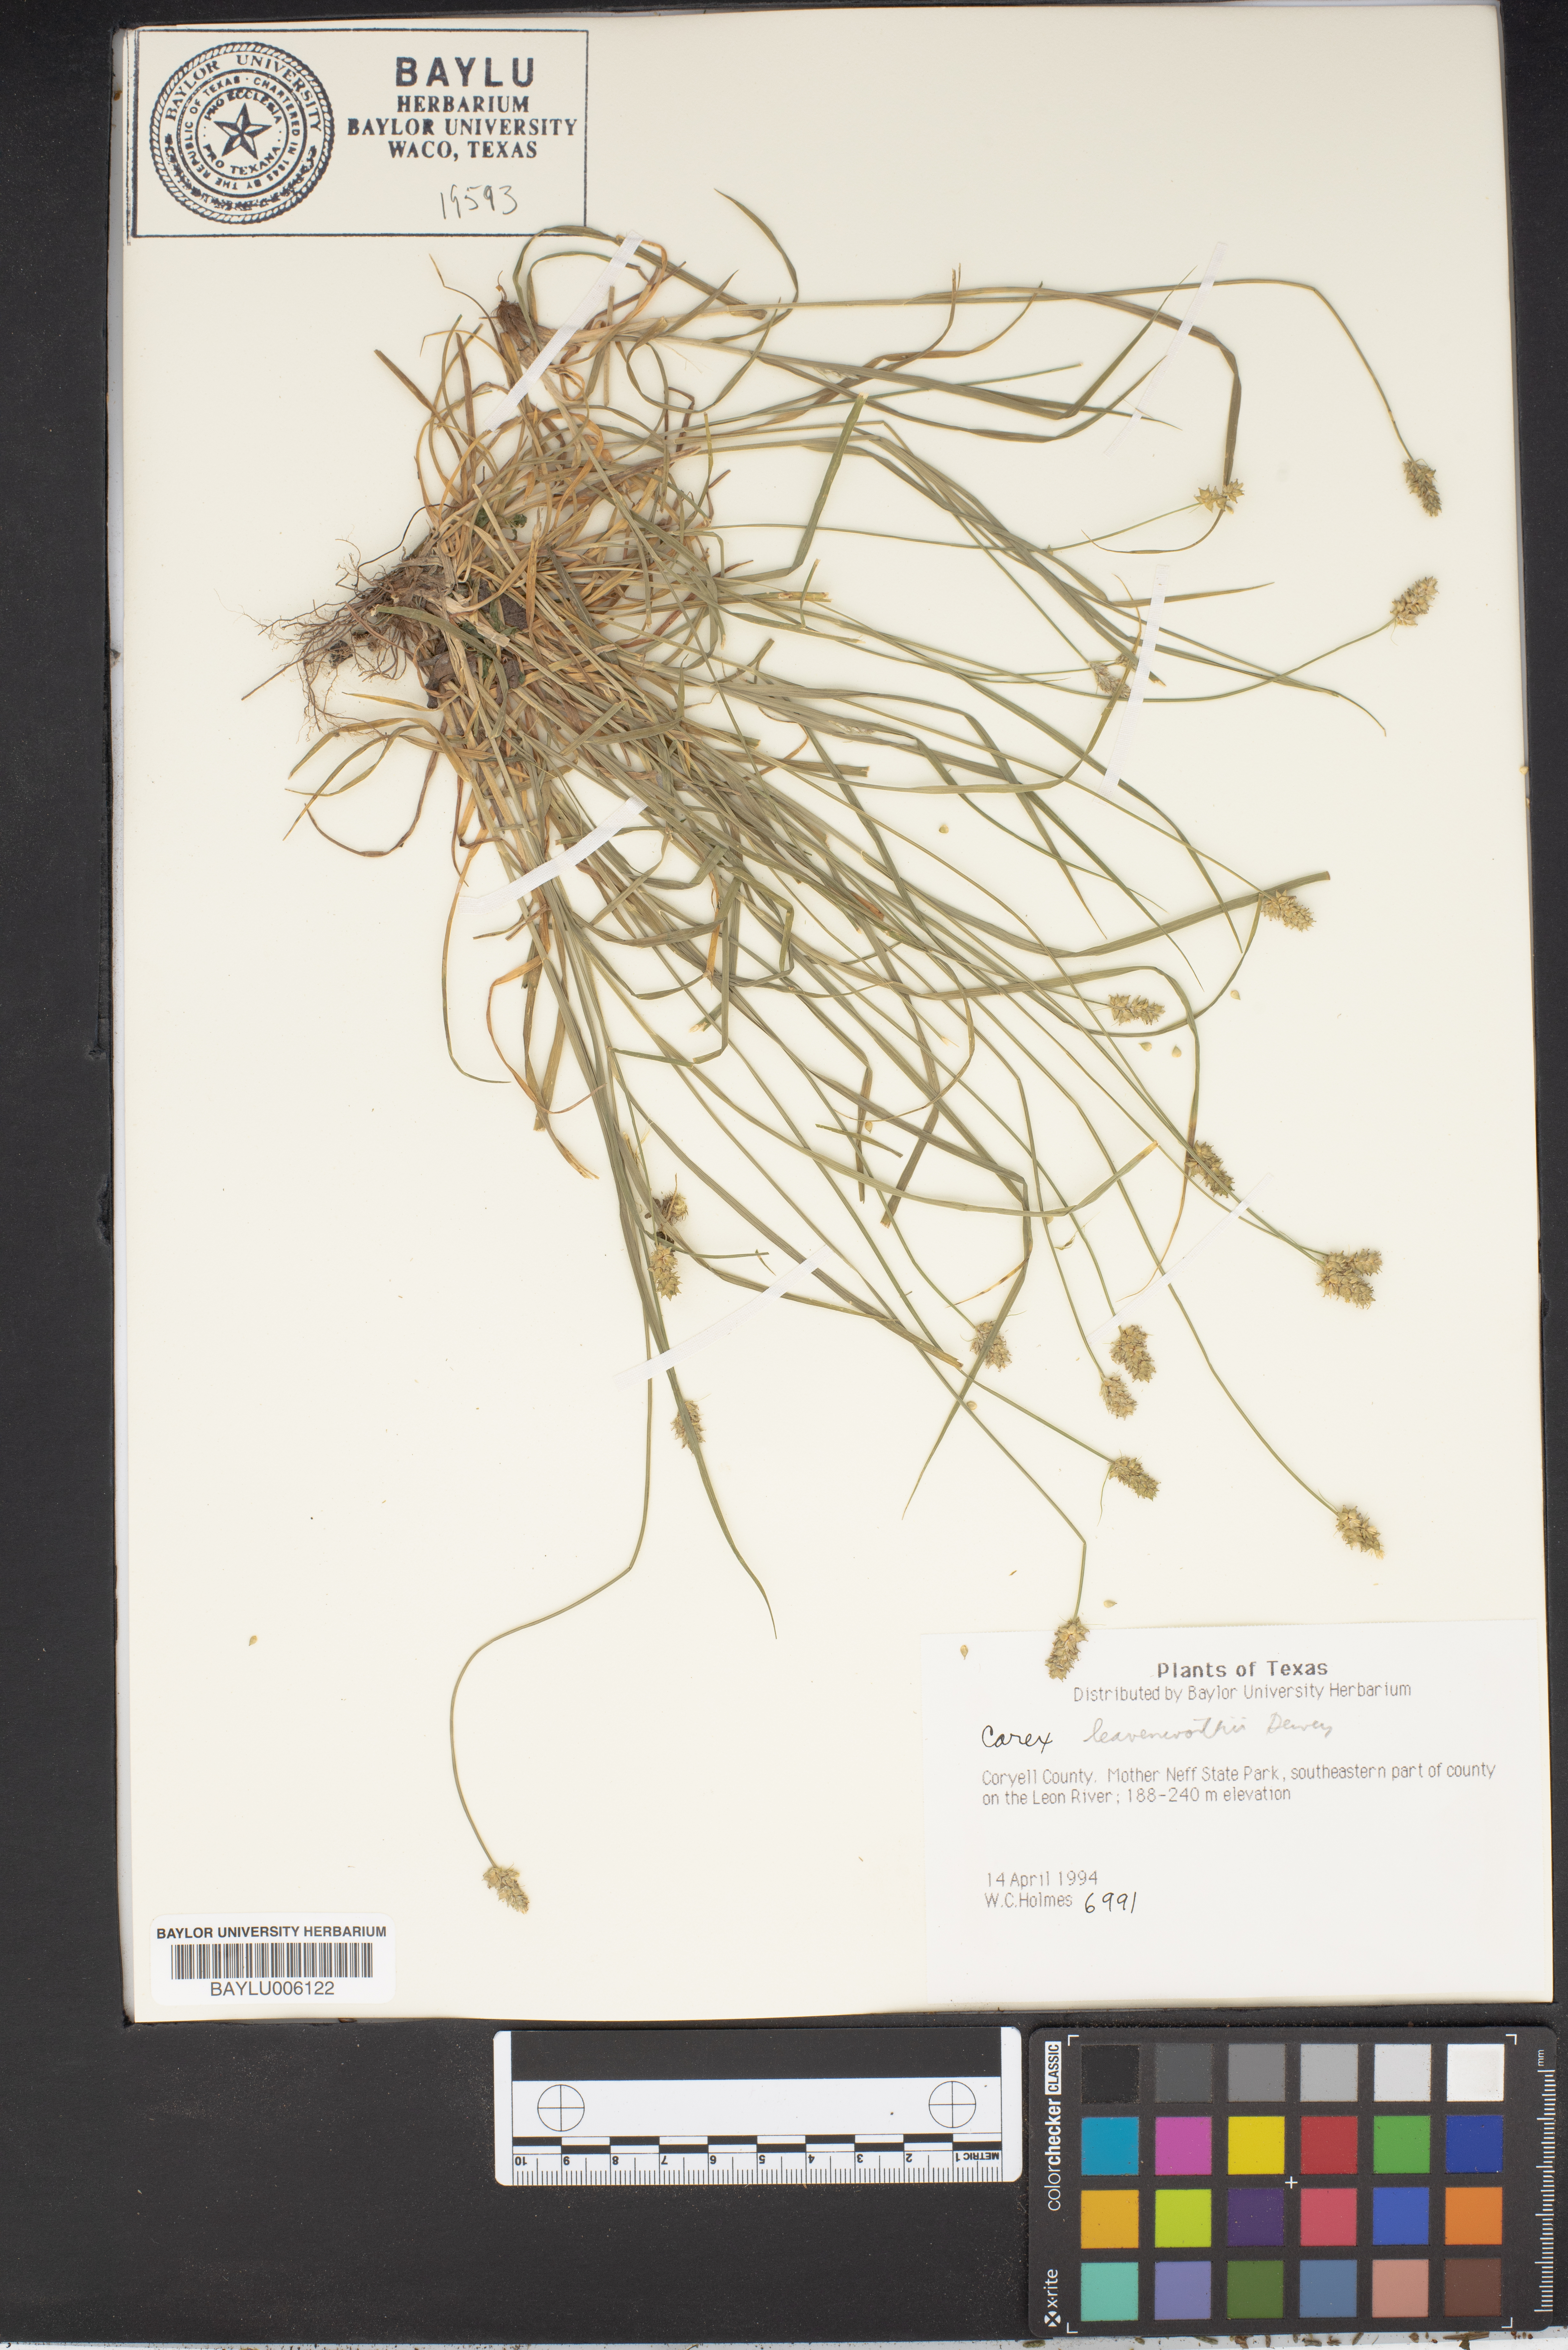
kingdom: Plantae
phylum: Tracheophyta
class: Liliopsida
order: Poales
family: Cyperaceae
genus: Carex
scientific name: Carex leavenworthii
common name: Leavenworth's bracted sedge
